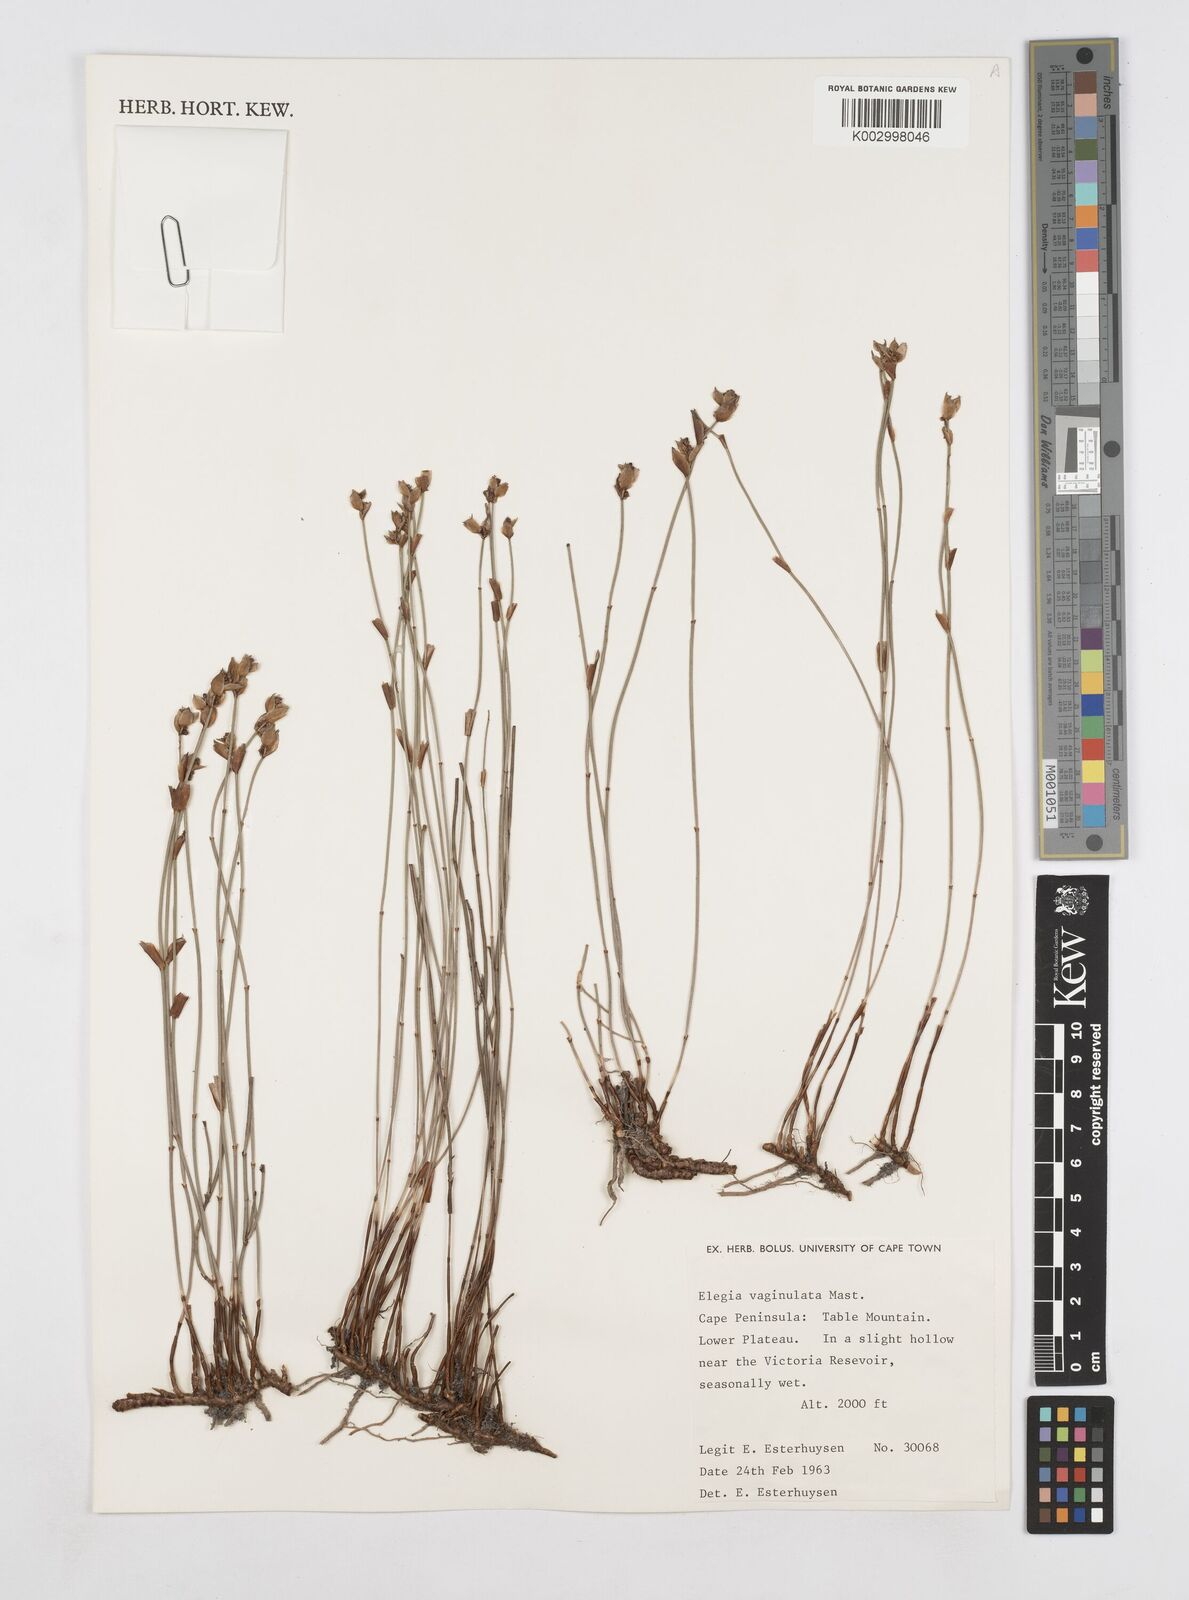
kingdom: Plantae
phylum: Tracheophyta
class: Liliopsida
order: Poales
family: Restionaceae
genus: Elegia
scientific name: Elegia vaginulata
